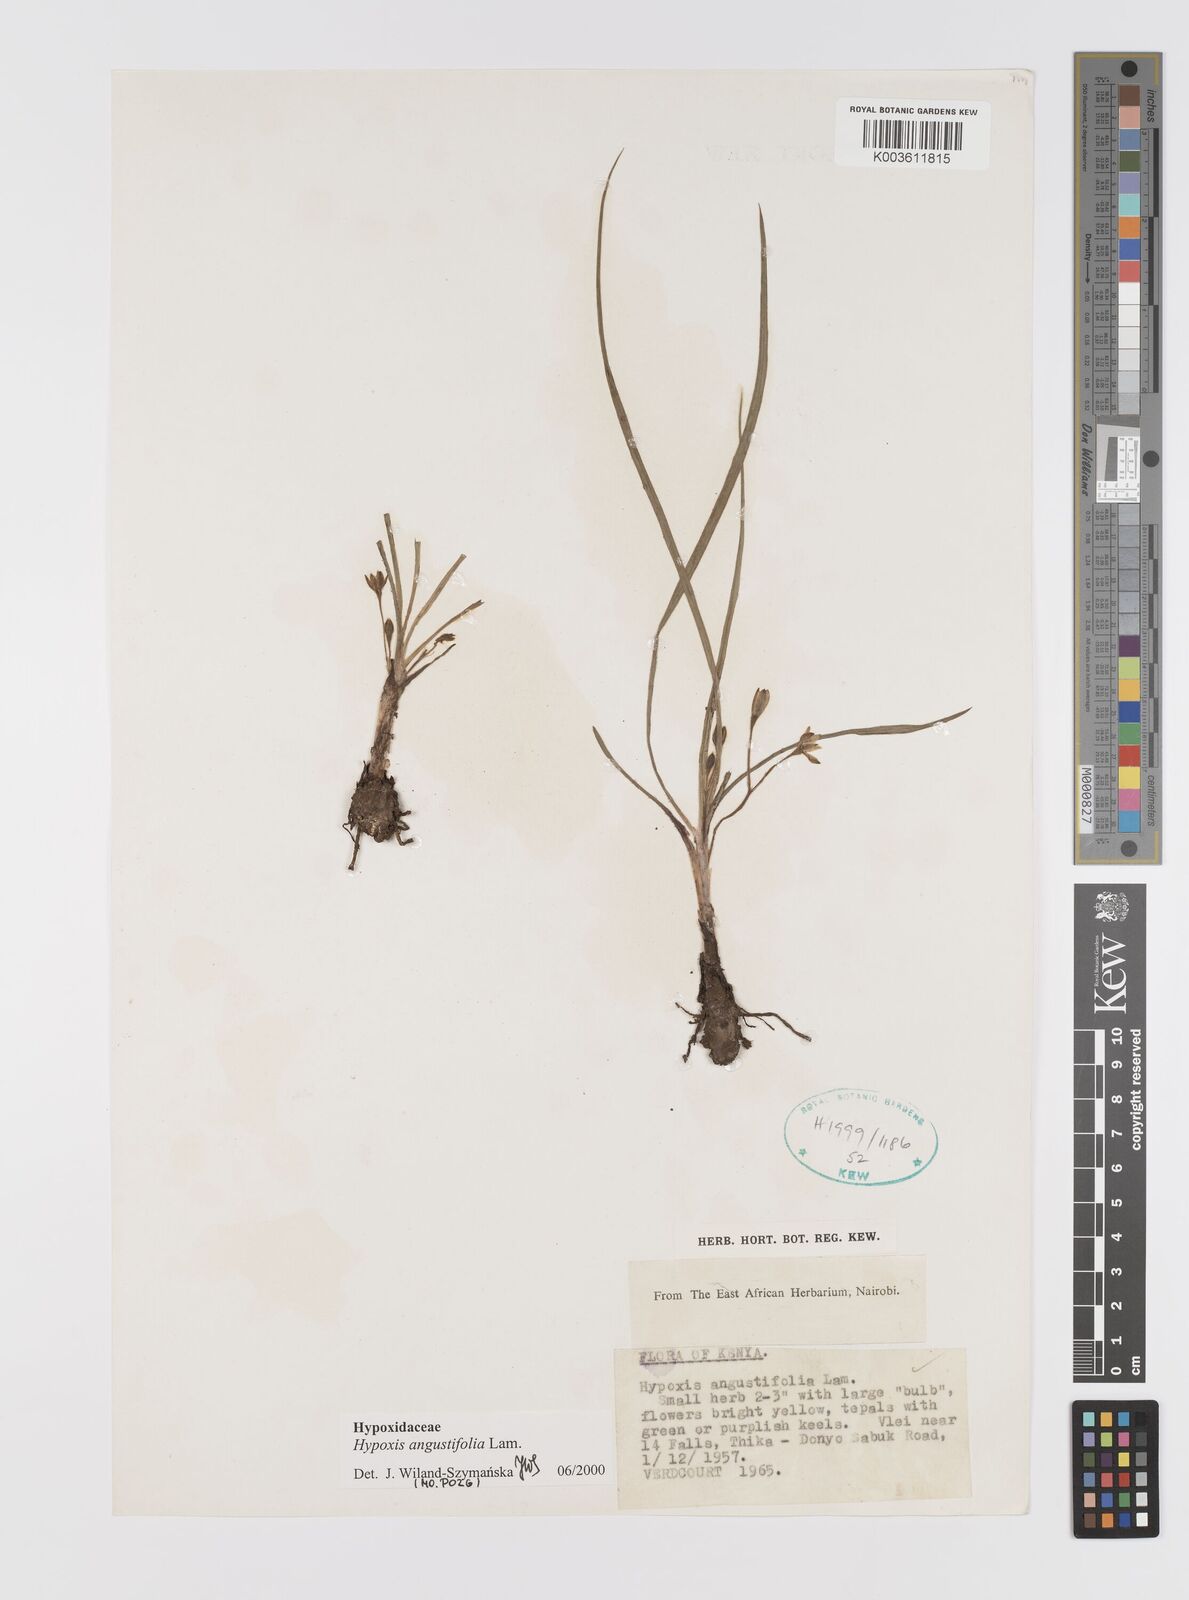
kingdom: Plantae
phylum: Tracheophyta
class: Liliopsida
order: Asparagales
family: Hypoxidaceae
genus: Hypoxis
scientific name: Hypoxis angustifolia
